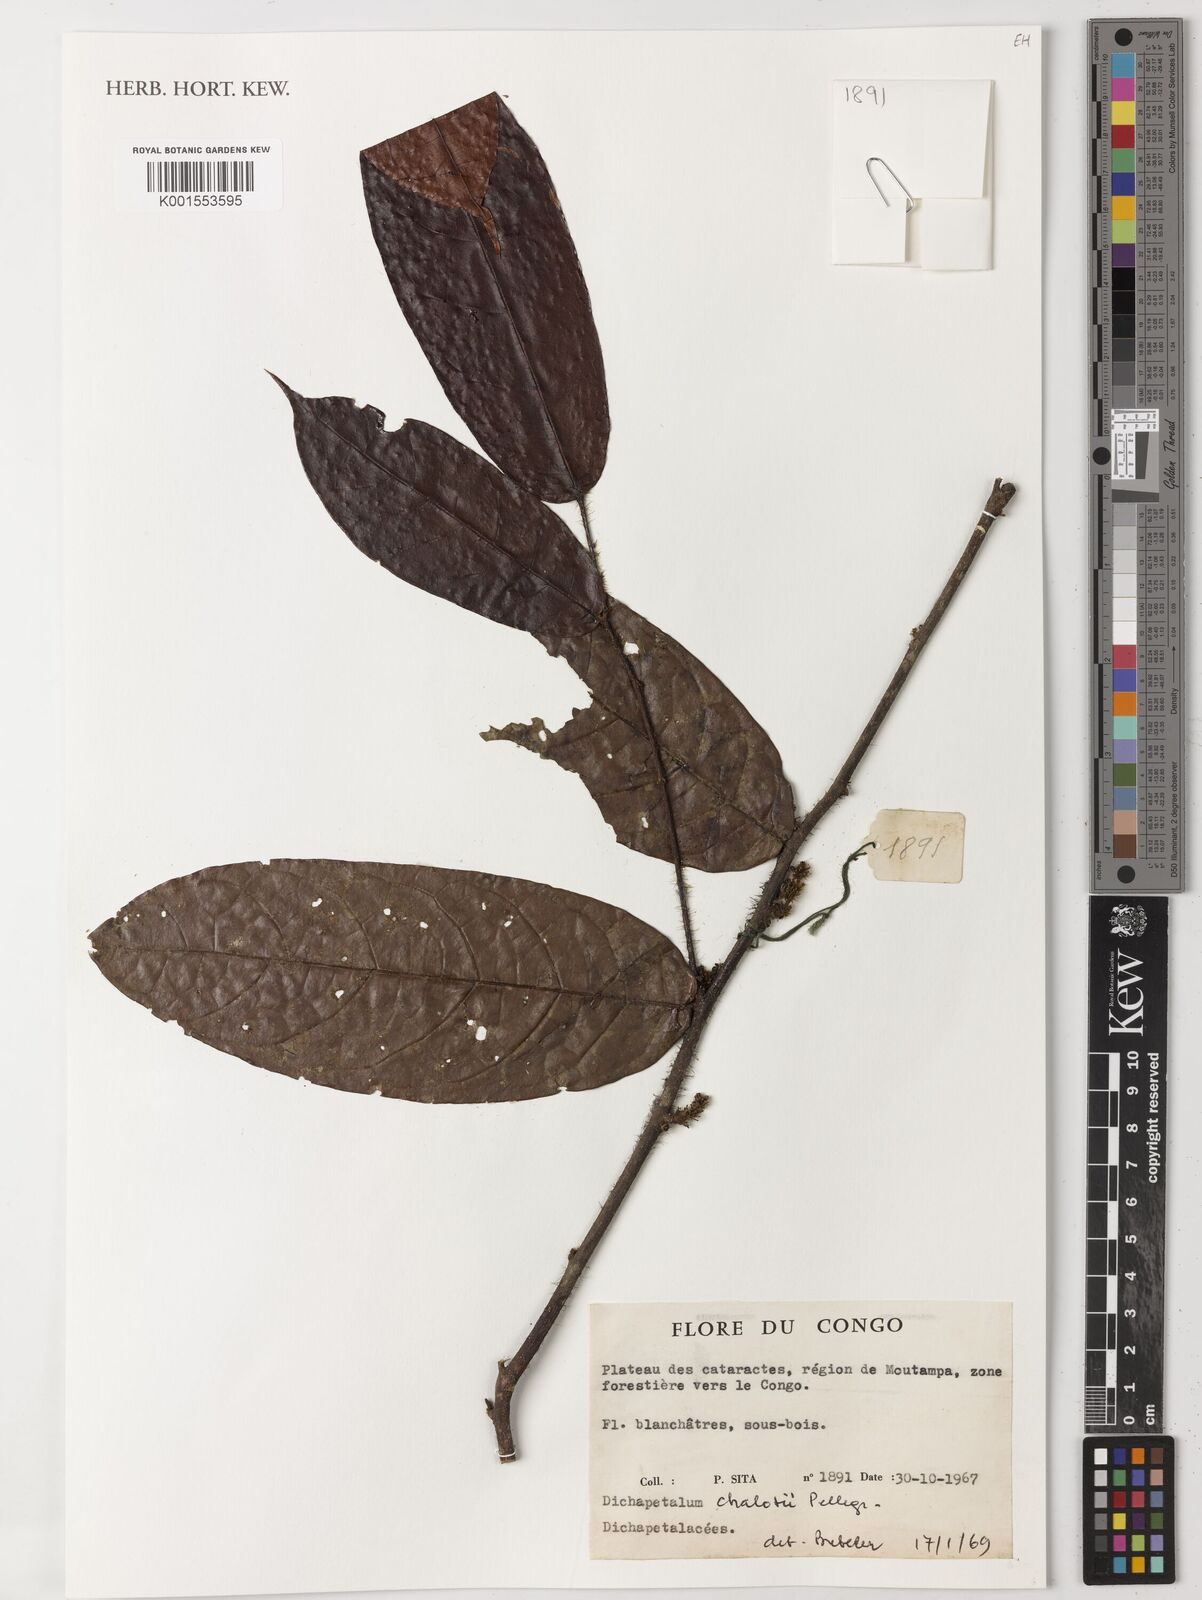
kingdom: Plantae
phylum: Tracheophyta
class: Magnoliopsida
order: Malpighiales
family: Dichapetalaceae
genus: Dichapetalum
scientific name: Dichapetalum chalotii
